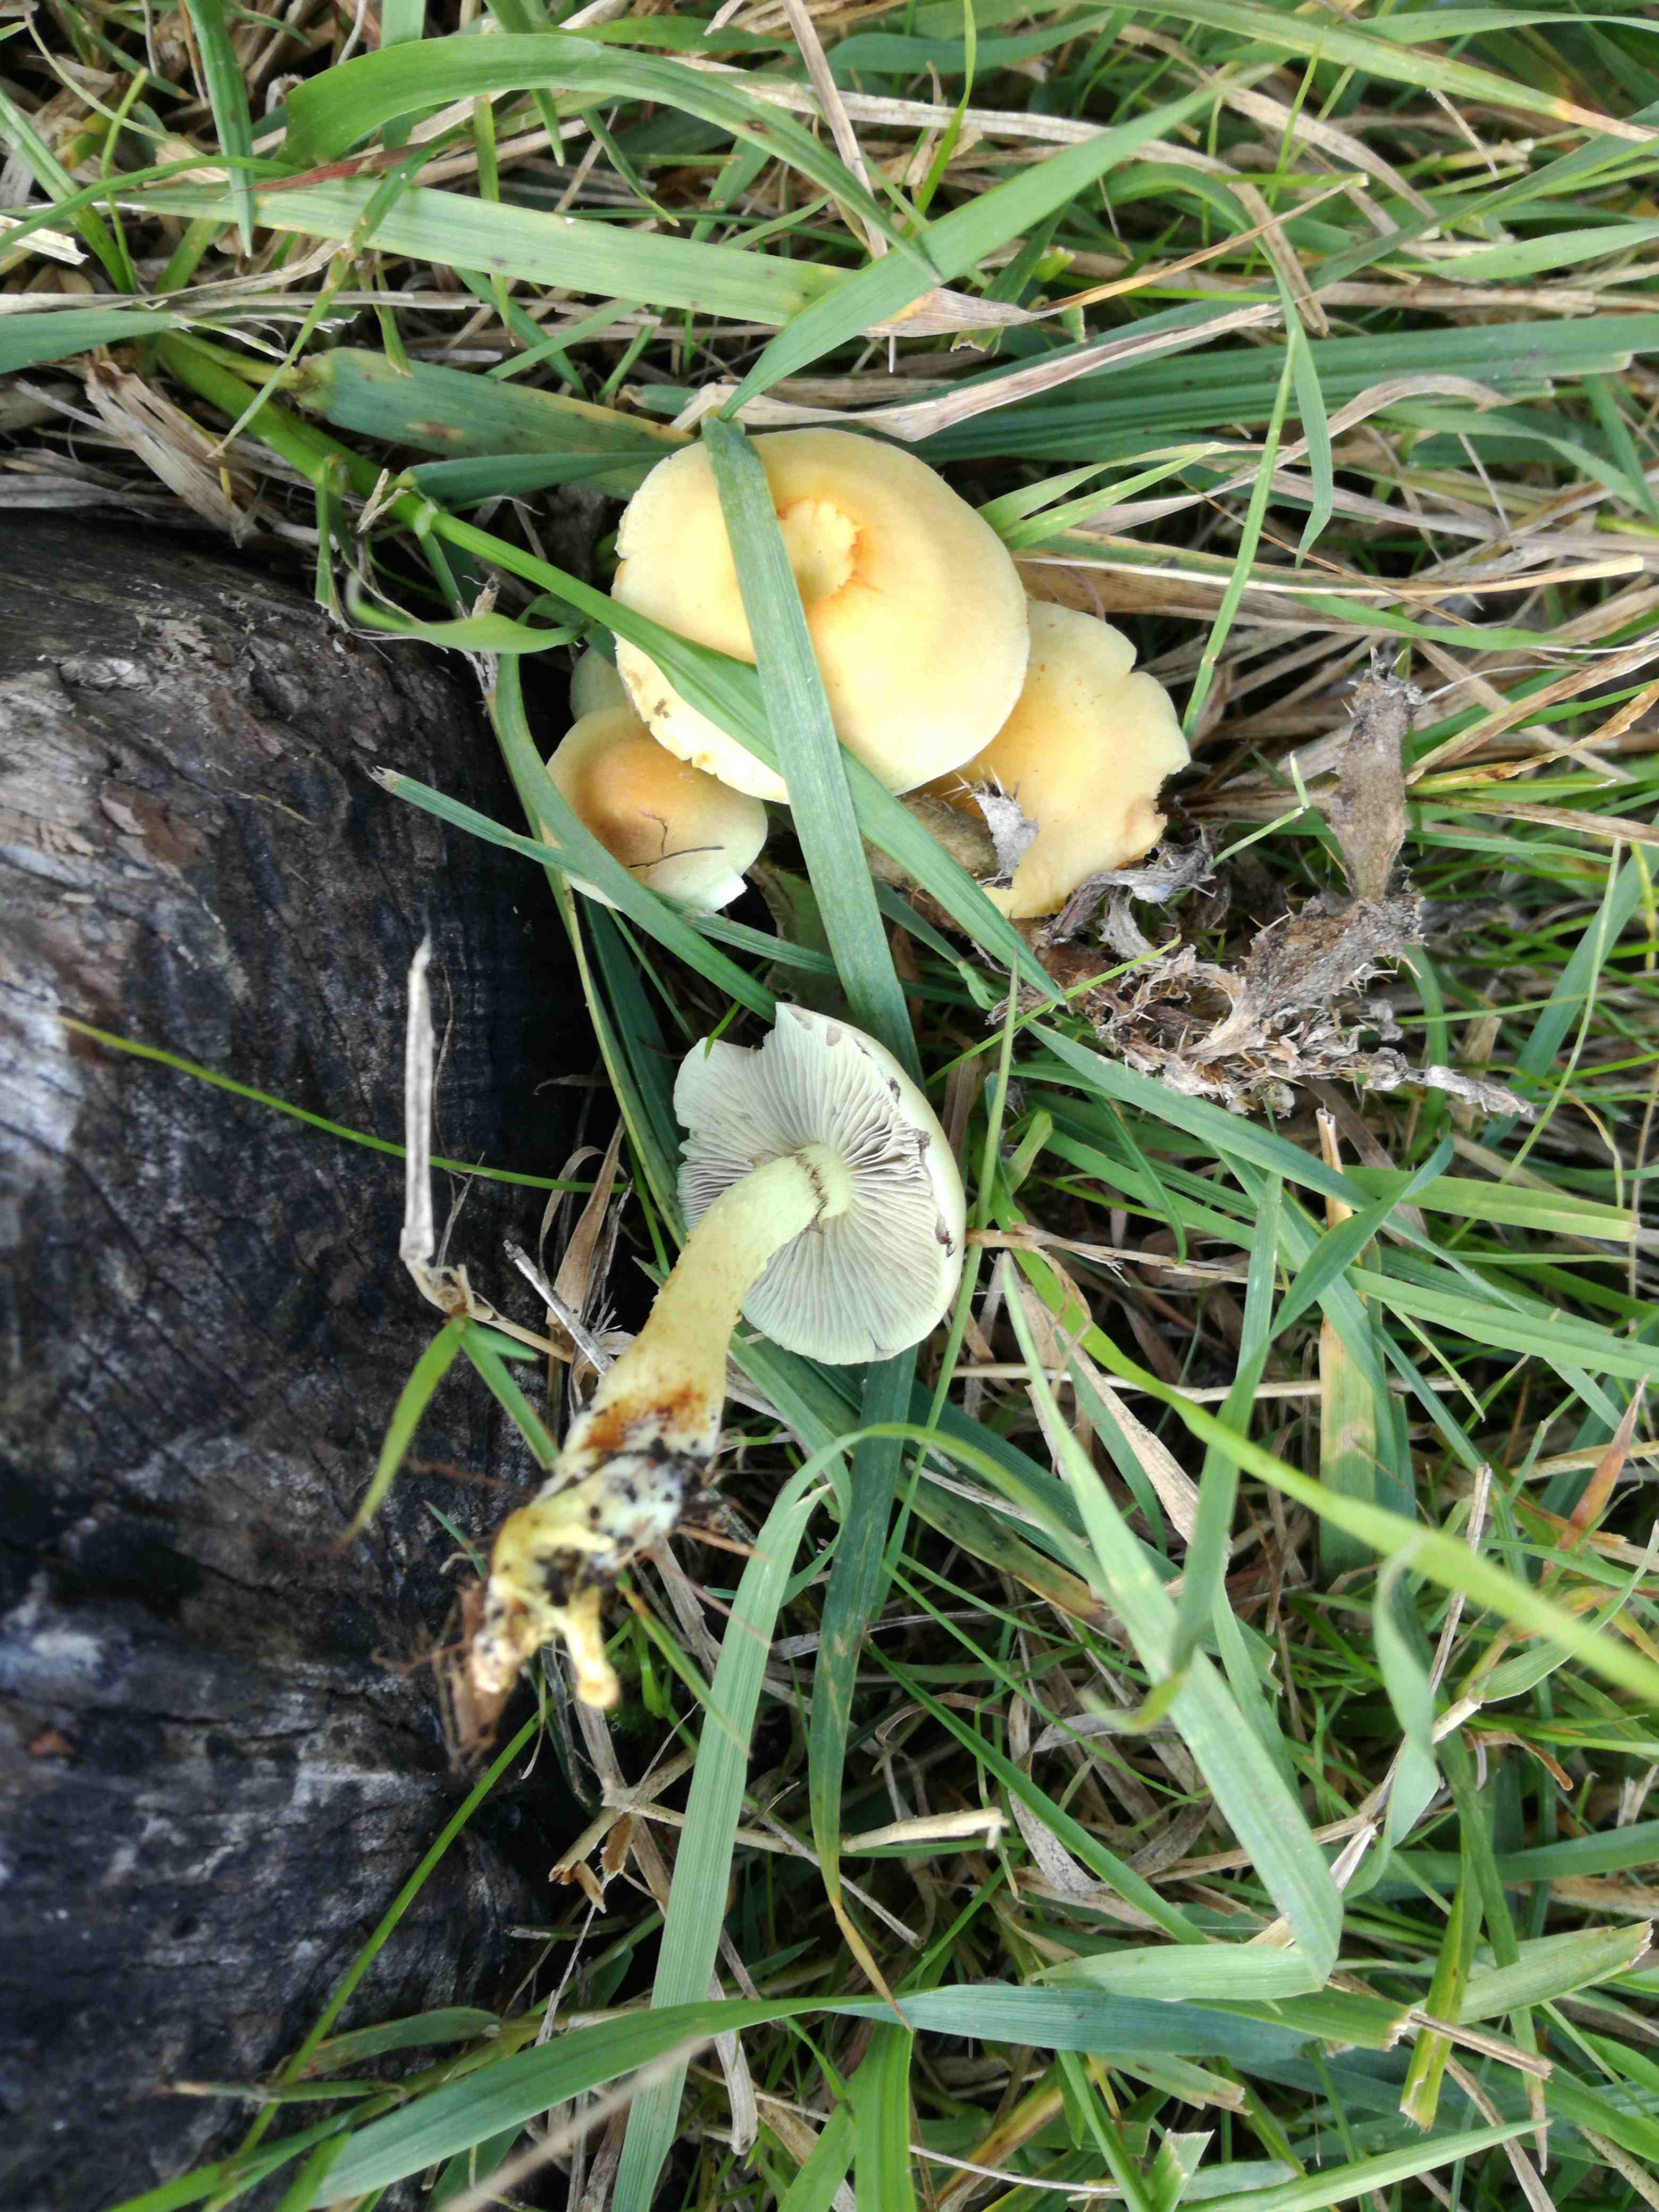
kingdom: Fungi
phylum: Basidiomycota
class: Agaricomycetes
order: Agaricales
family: Strophariaceae
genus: Hypholoma
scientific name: Hypholoma fasciculare
